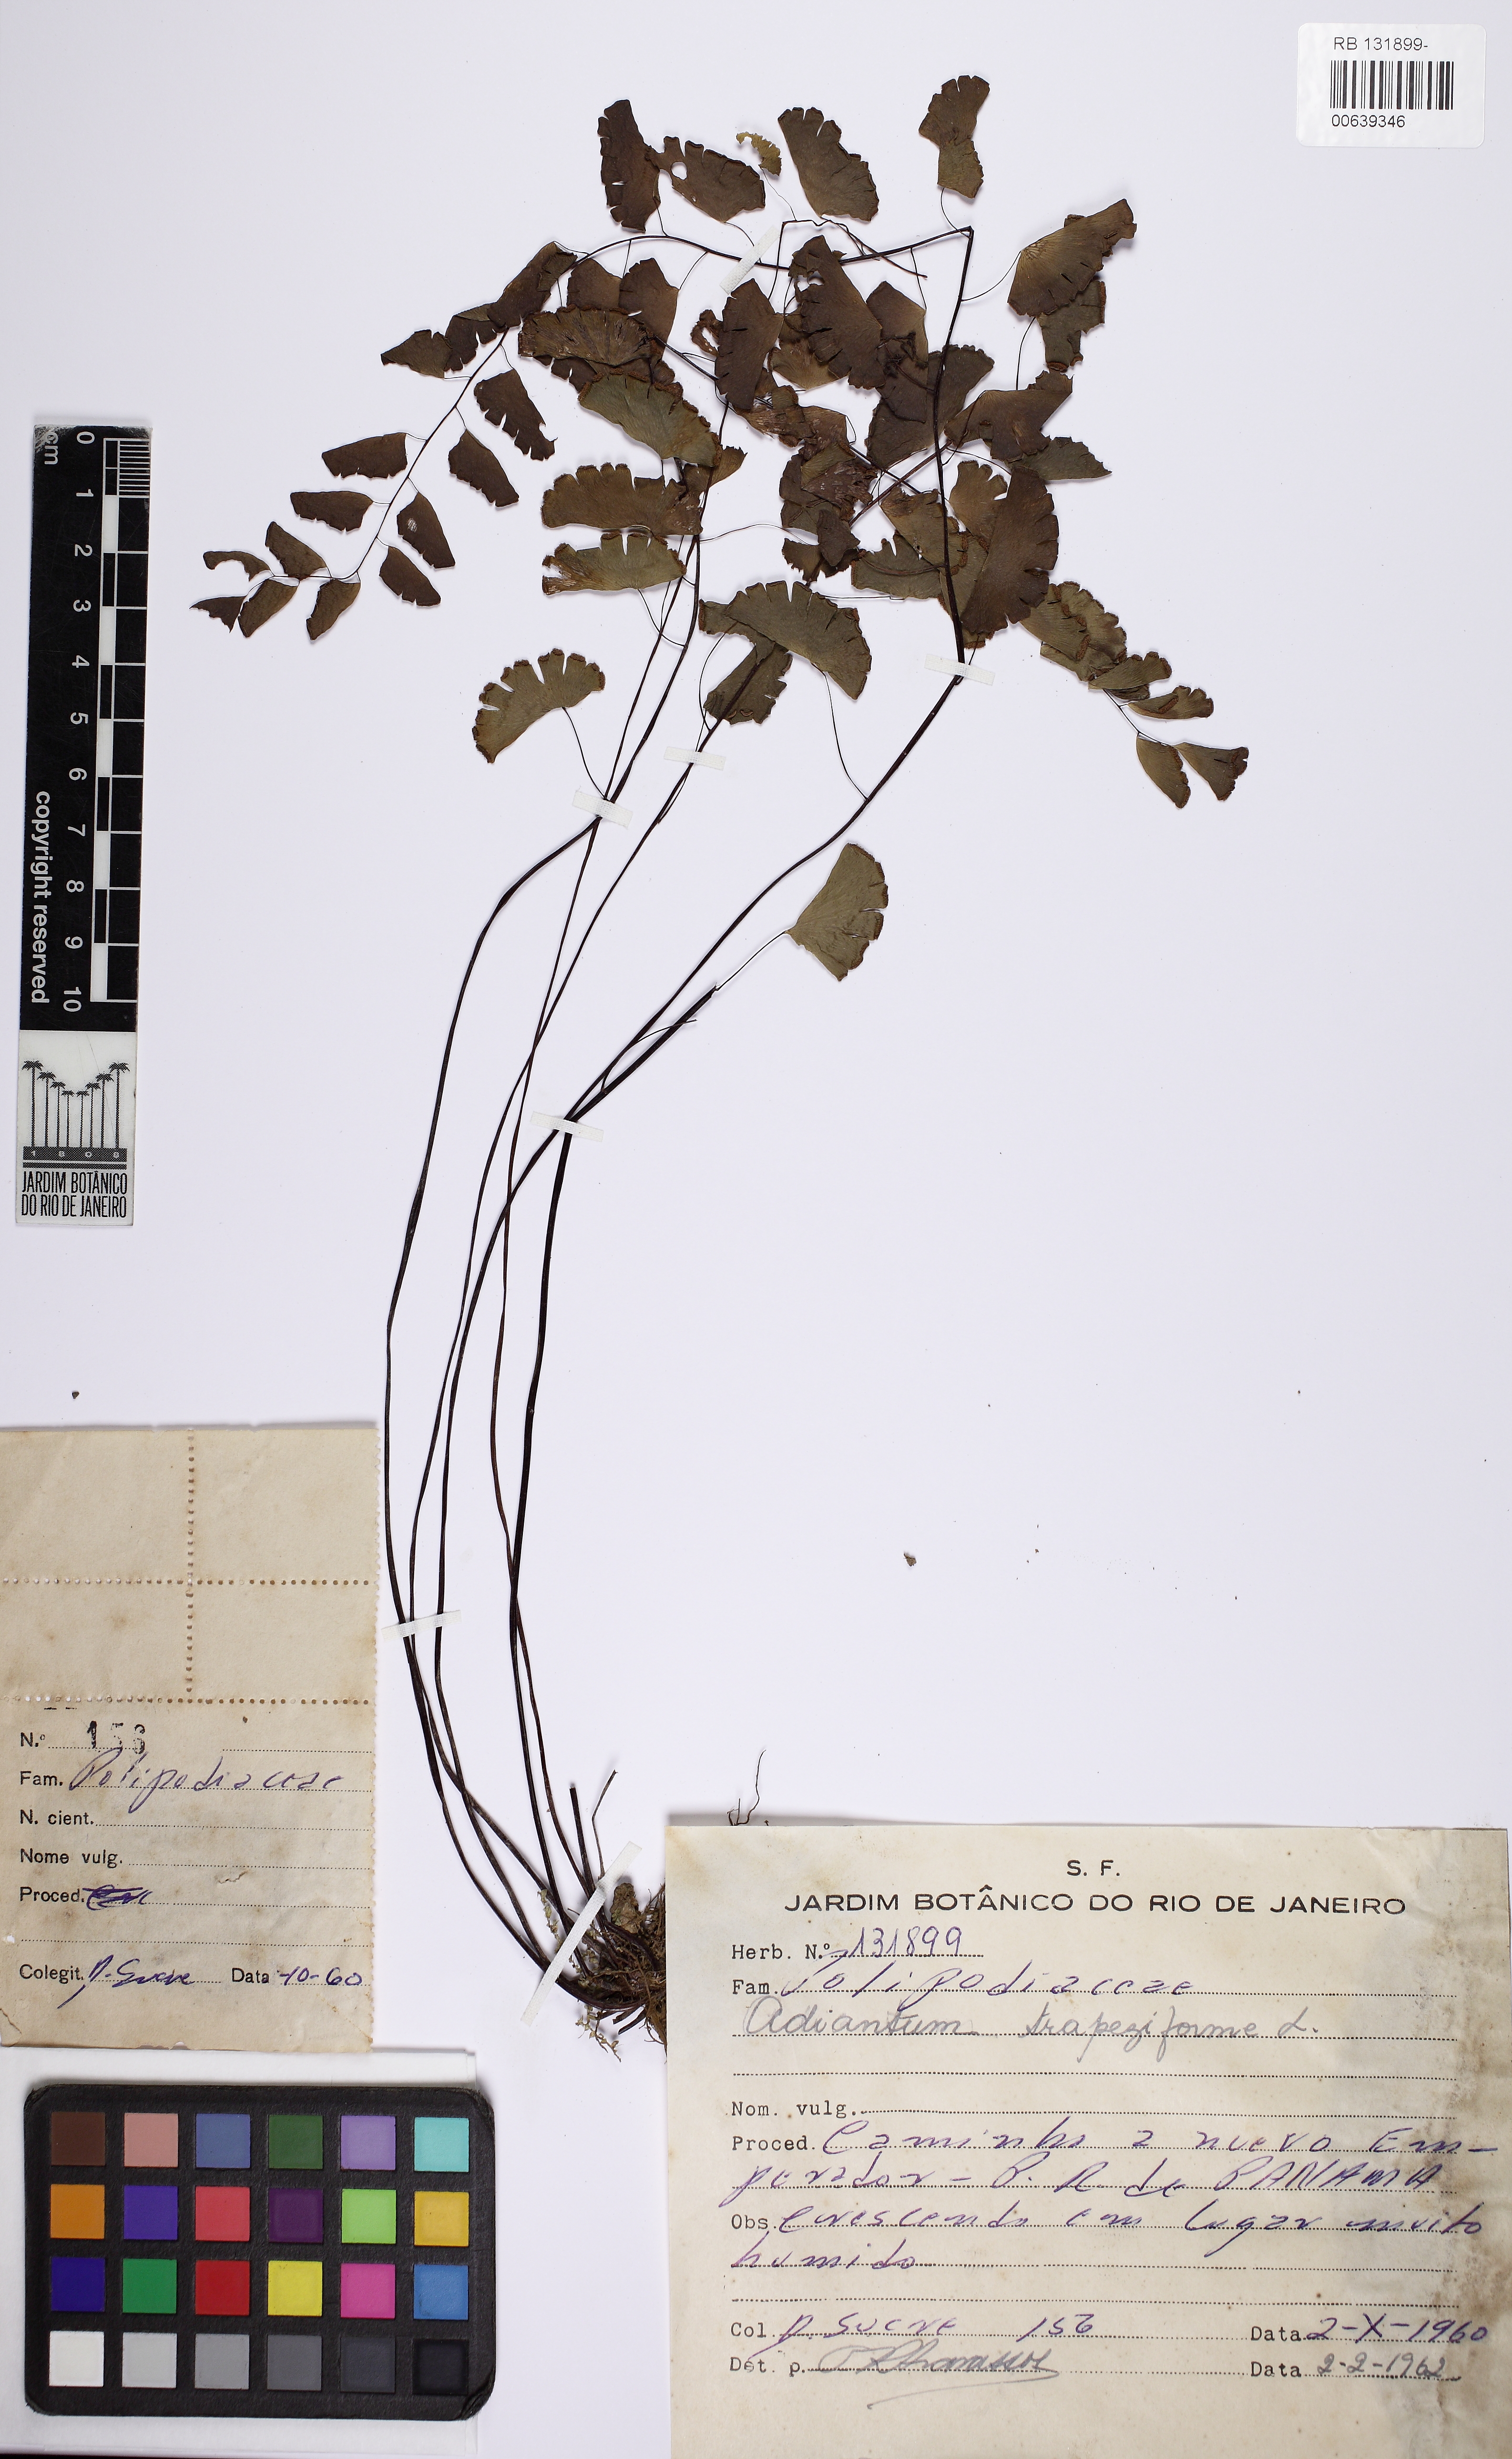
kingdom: Plantae
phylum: Tracheophyta
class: Polypodiopsida
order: Polypodiales
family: Pteridaceae
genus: Adiantum
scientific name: Adiantum philippense
